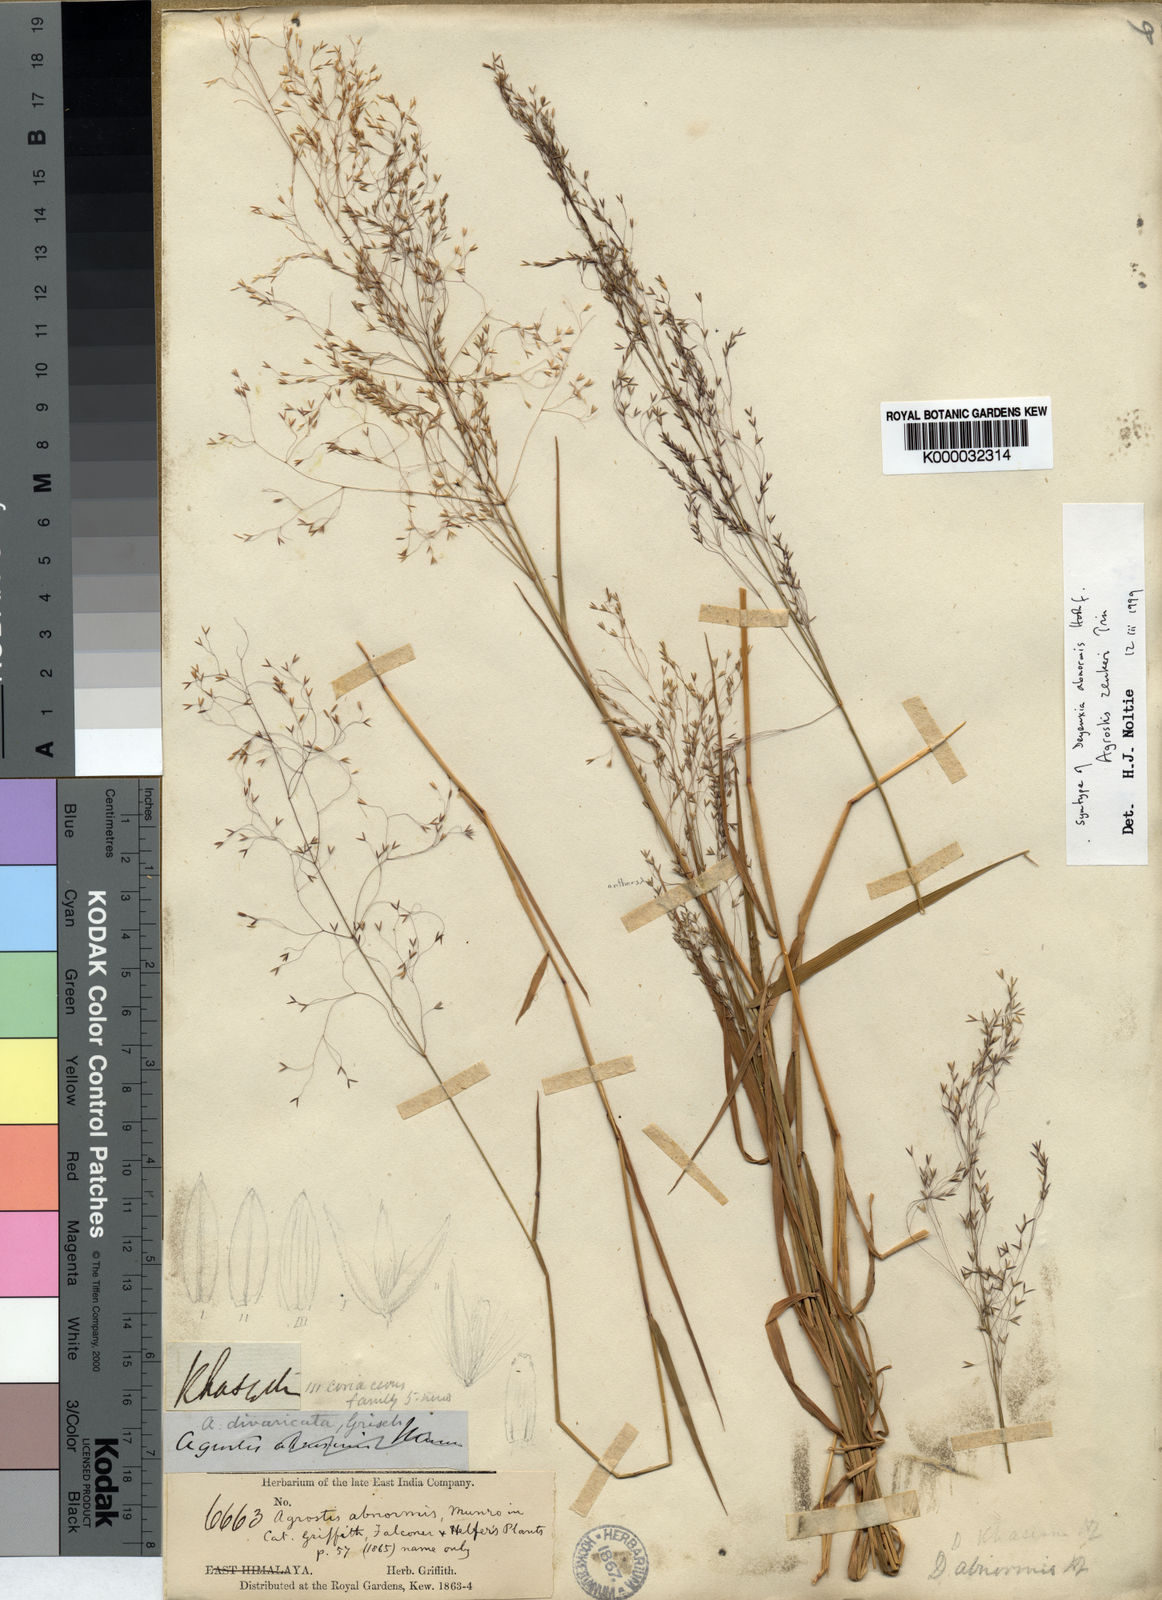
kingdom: Plantae
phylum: Tracheophyta
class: Liliopsida
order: Poales
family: Poaceae
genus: Calamagrostis
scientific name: Calamagrostis abnormis
